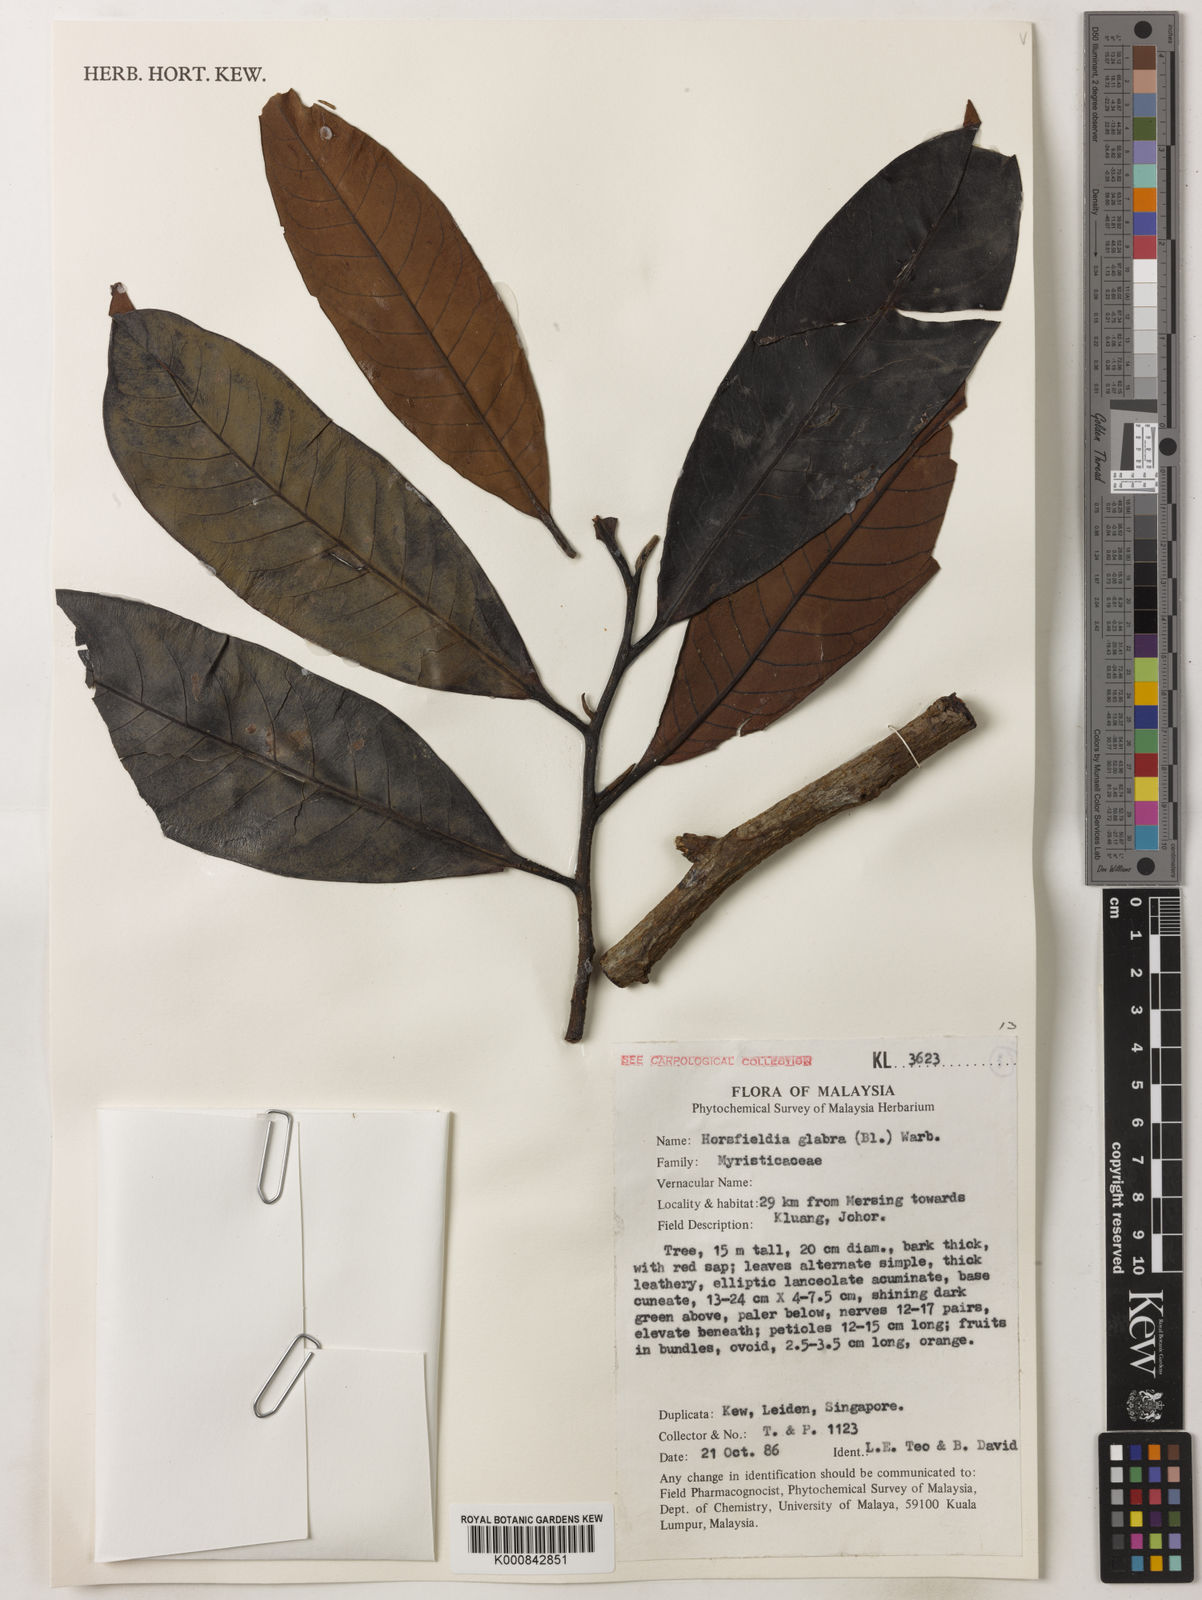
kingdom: Plantae
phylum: Tracheophyta
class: Magnoliopsida
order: Magnoliales
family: Myristicaceae
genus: Horsfieldia
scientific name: Horsfieldia
